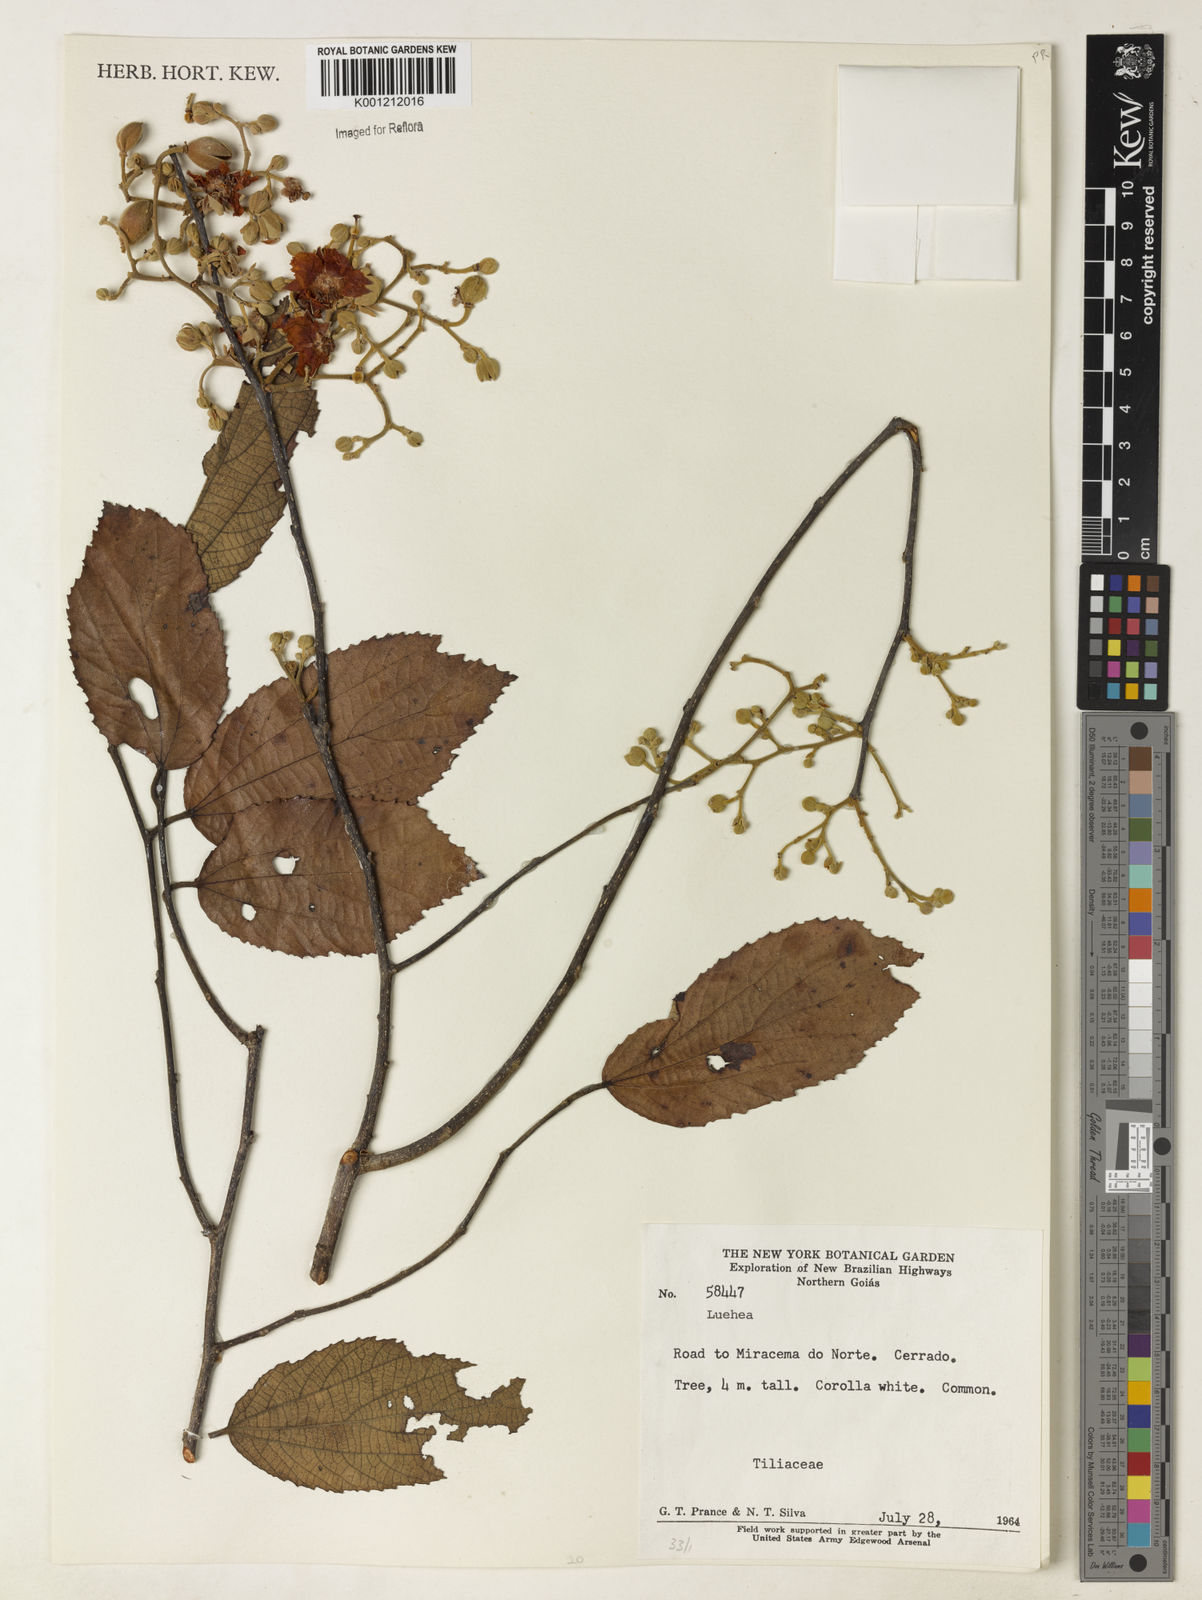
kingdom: Plantae
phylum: Tracheophyta
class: Magnoliopsida
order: Malvales
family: Malvaceae
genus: Luehea
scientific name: Luehea
